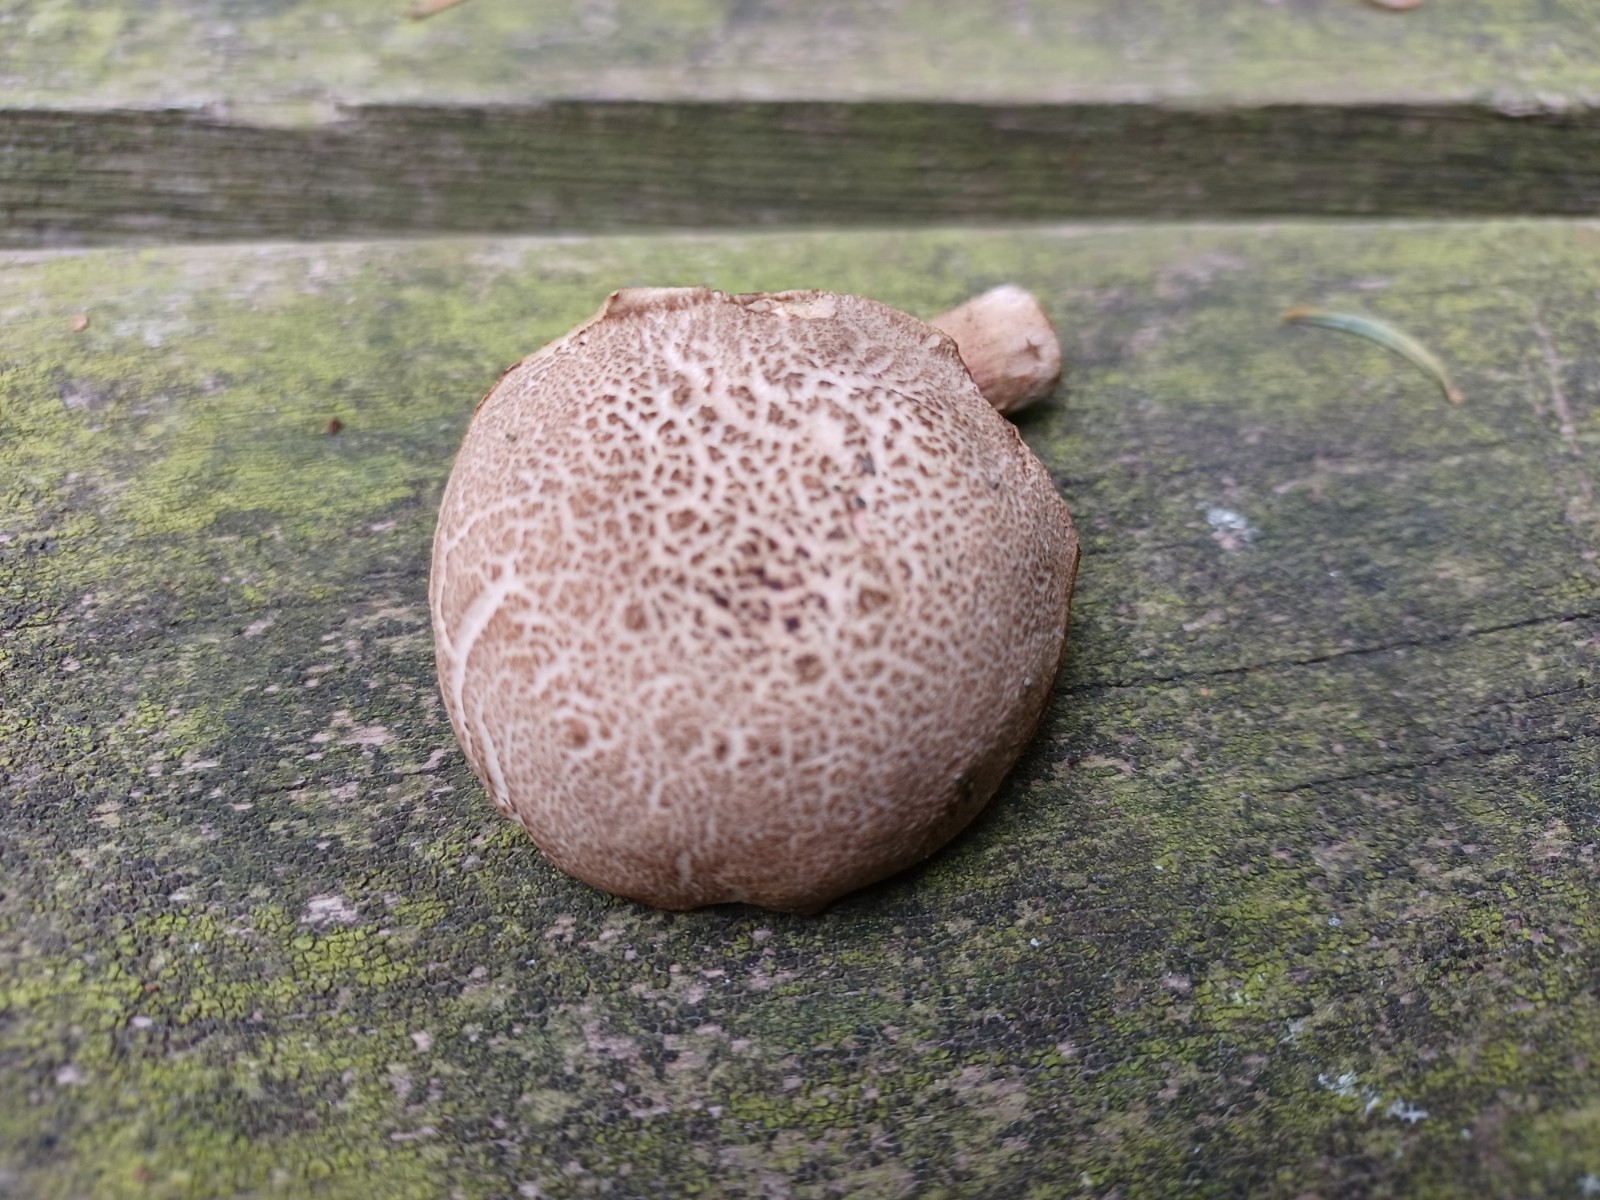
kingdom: Fungi
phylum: Basidiomycota
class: Agaricomycetes
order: Boletales
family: Boletaceae
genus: Xerocomellus
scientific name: Xerocomellus
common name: dværgrørhat
